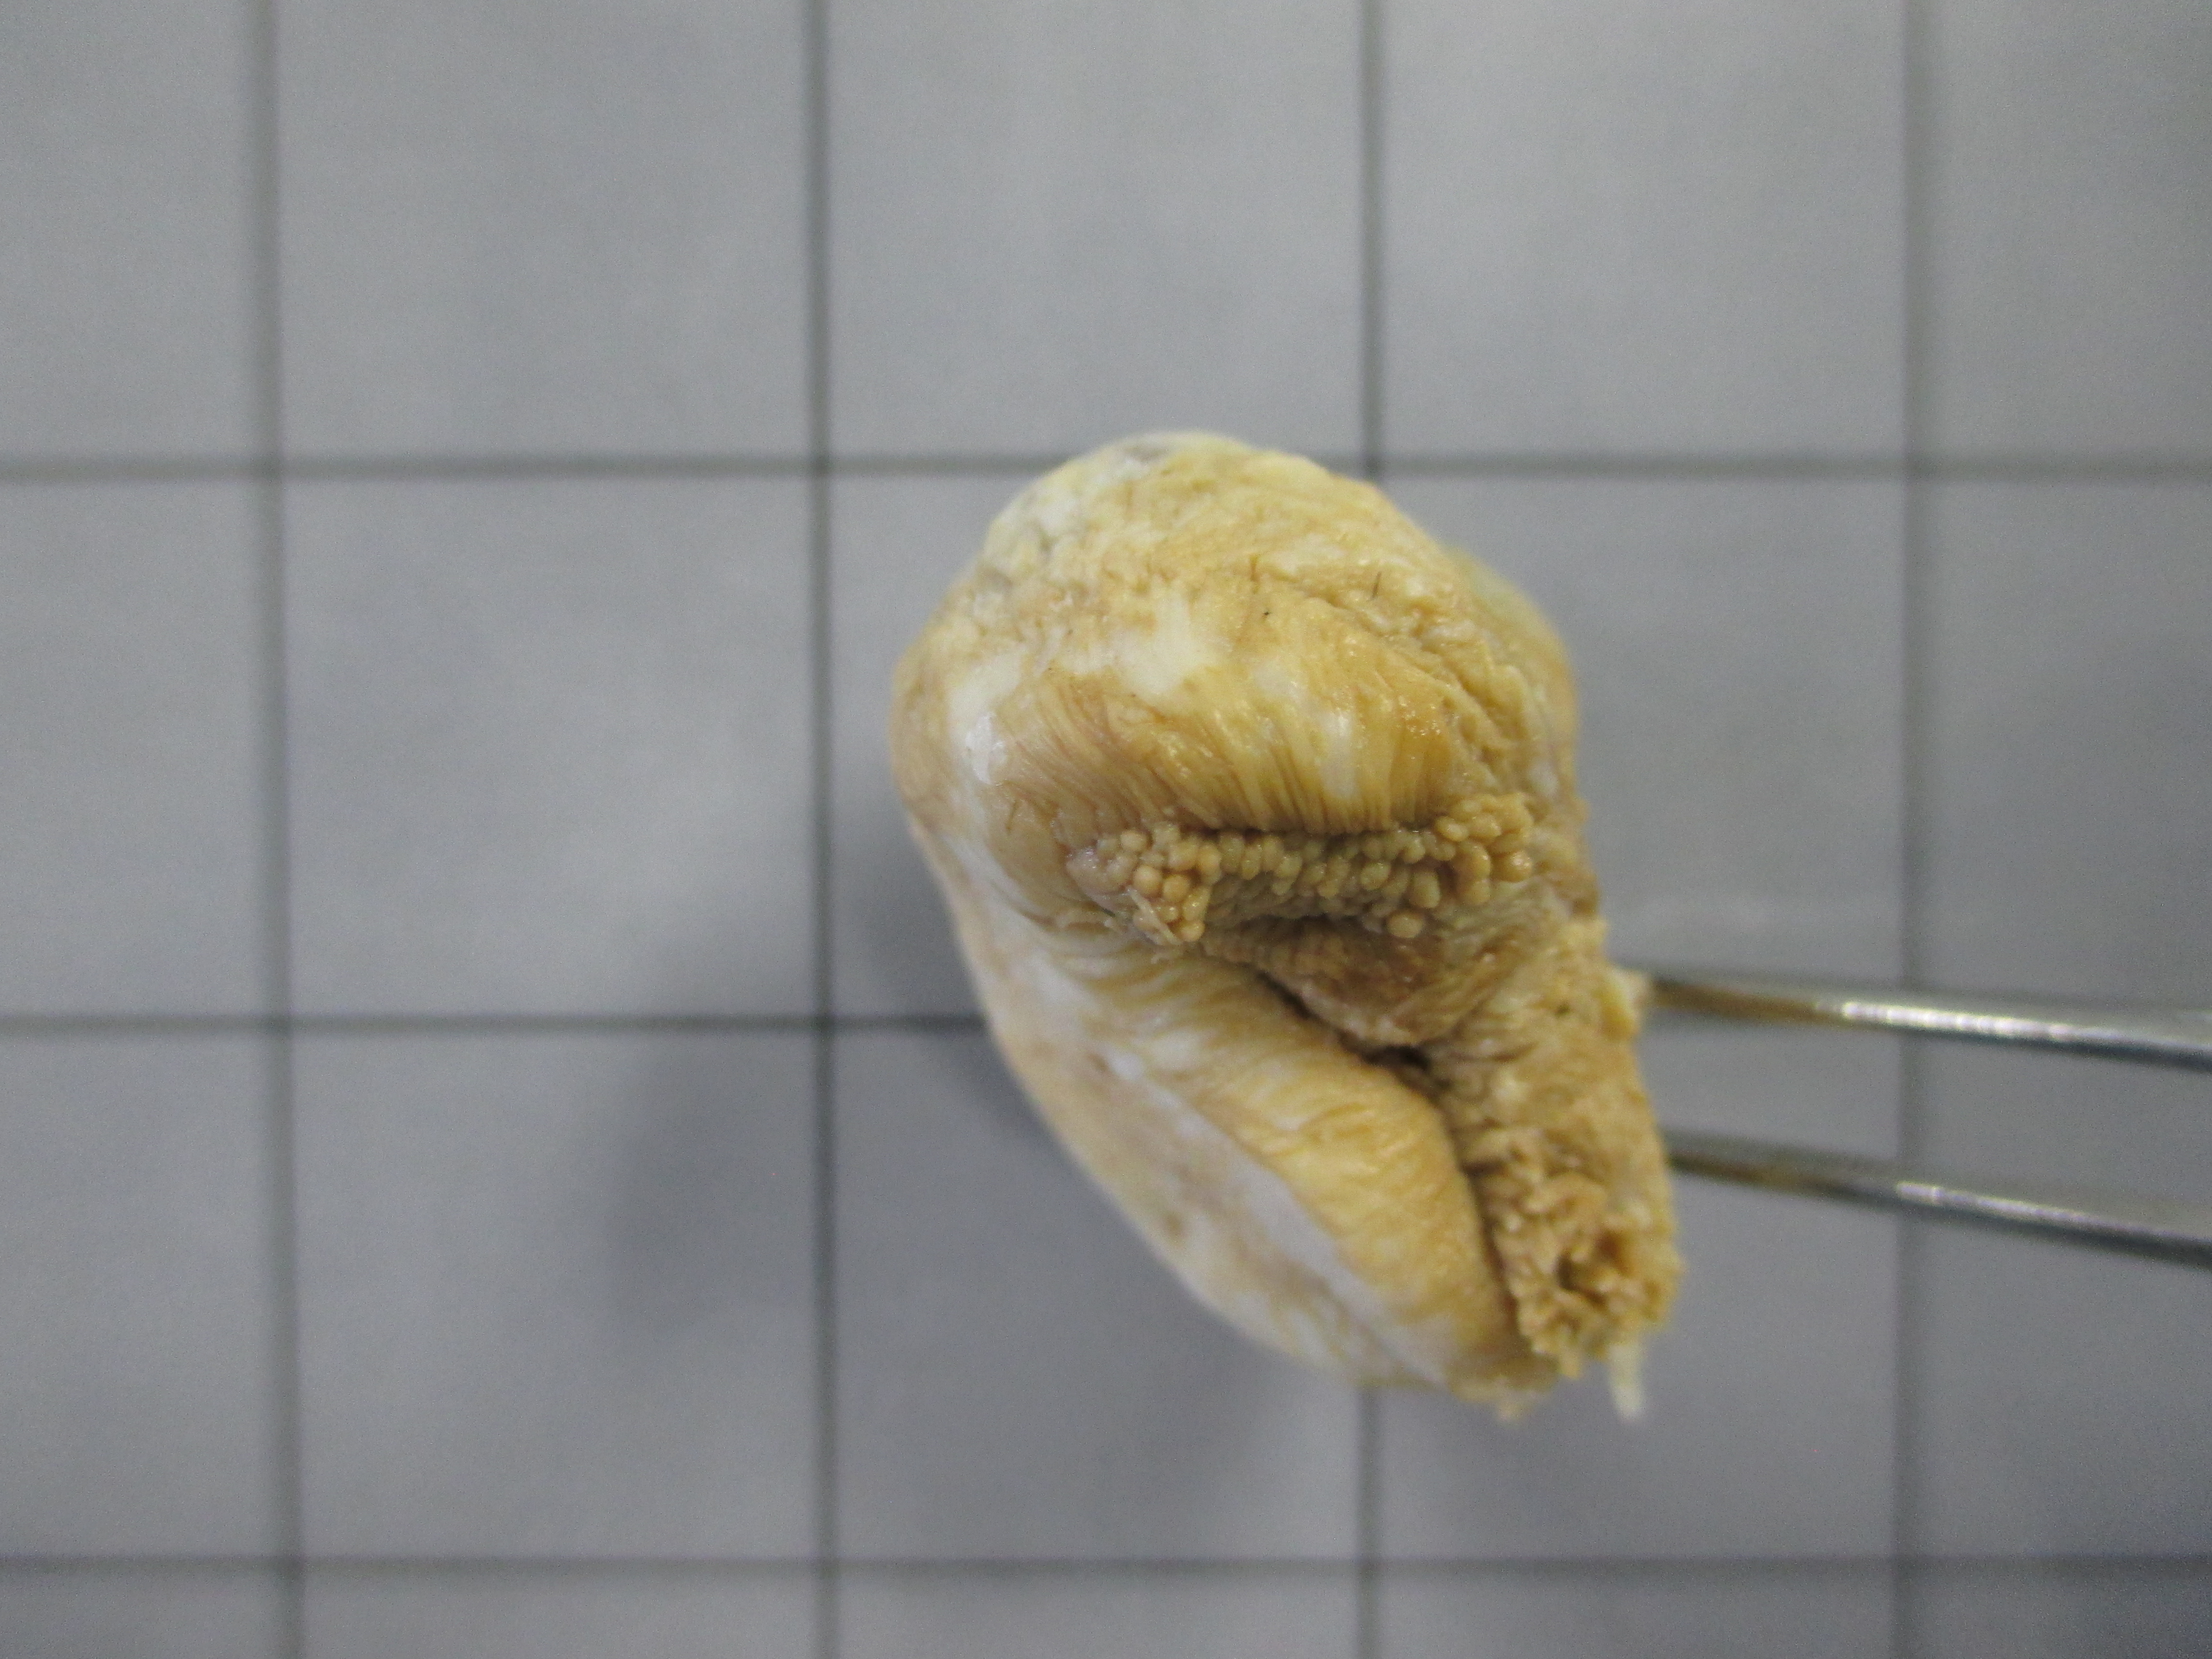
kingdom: Animalia
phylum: Cnidaria
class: Anthozoa
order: Actiniaria
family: Andvakiidae
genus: Isophellia
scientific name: Isophellia algoaensis
